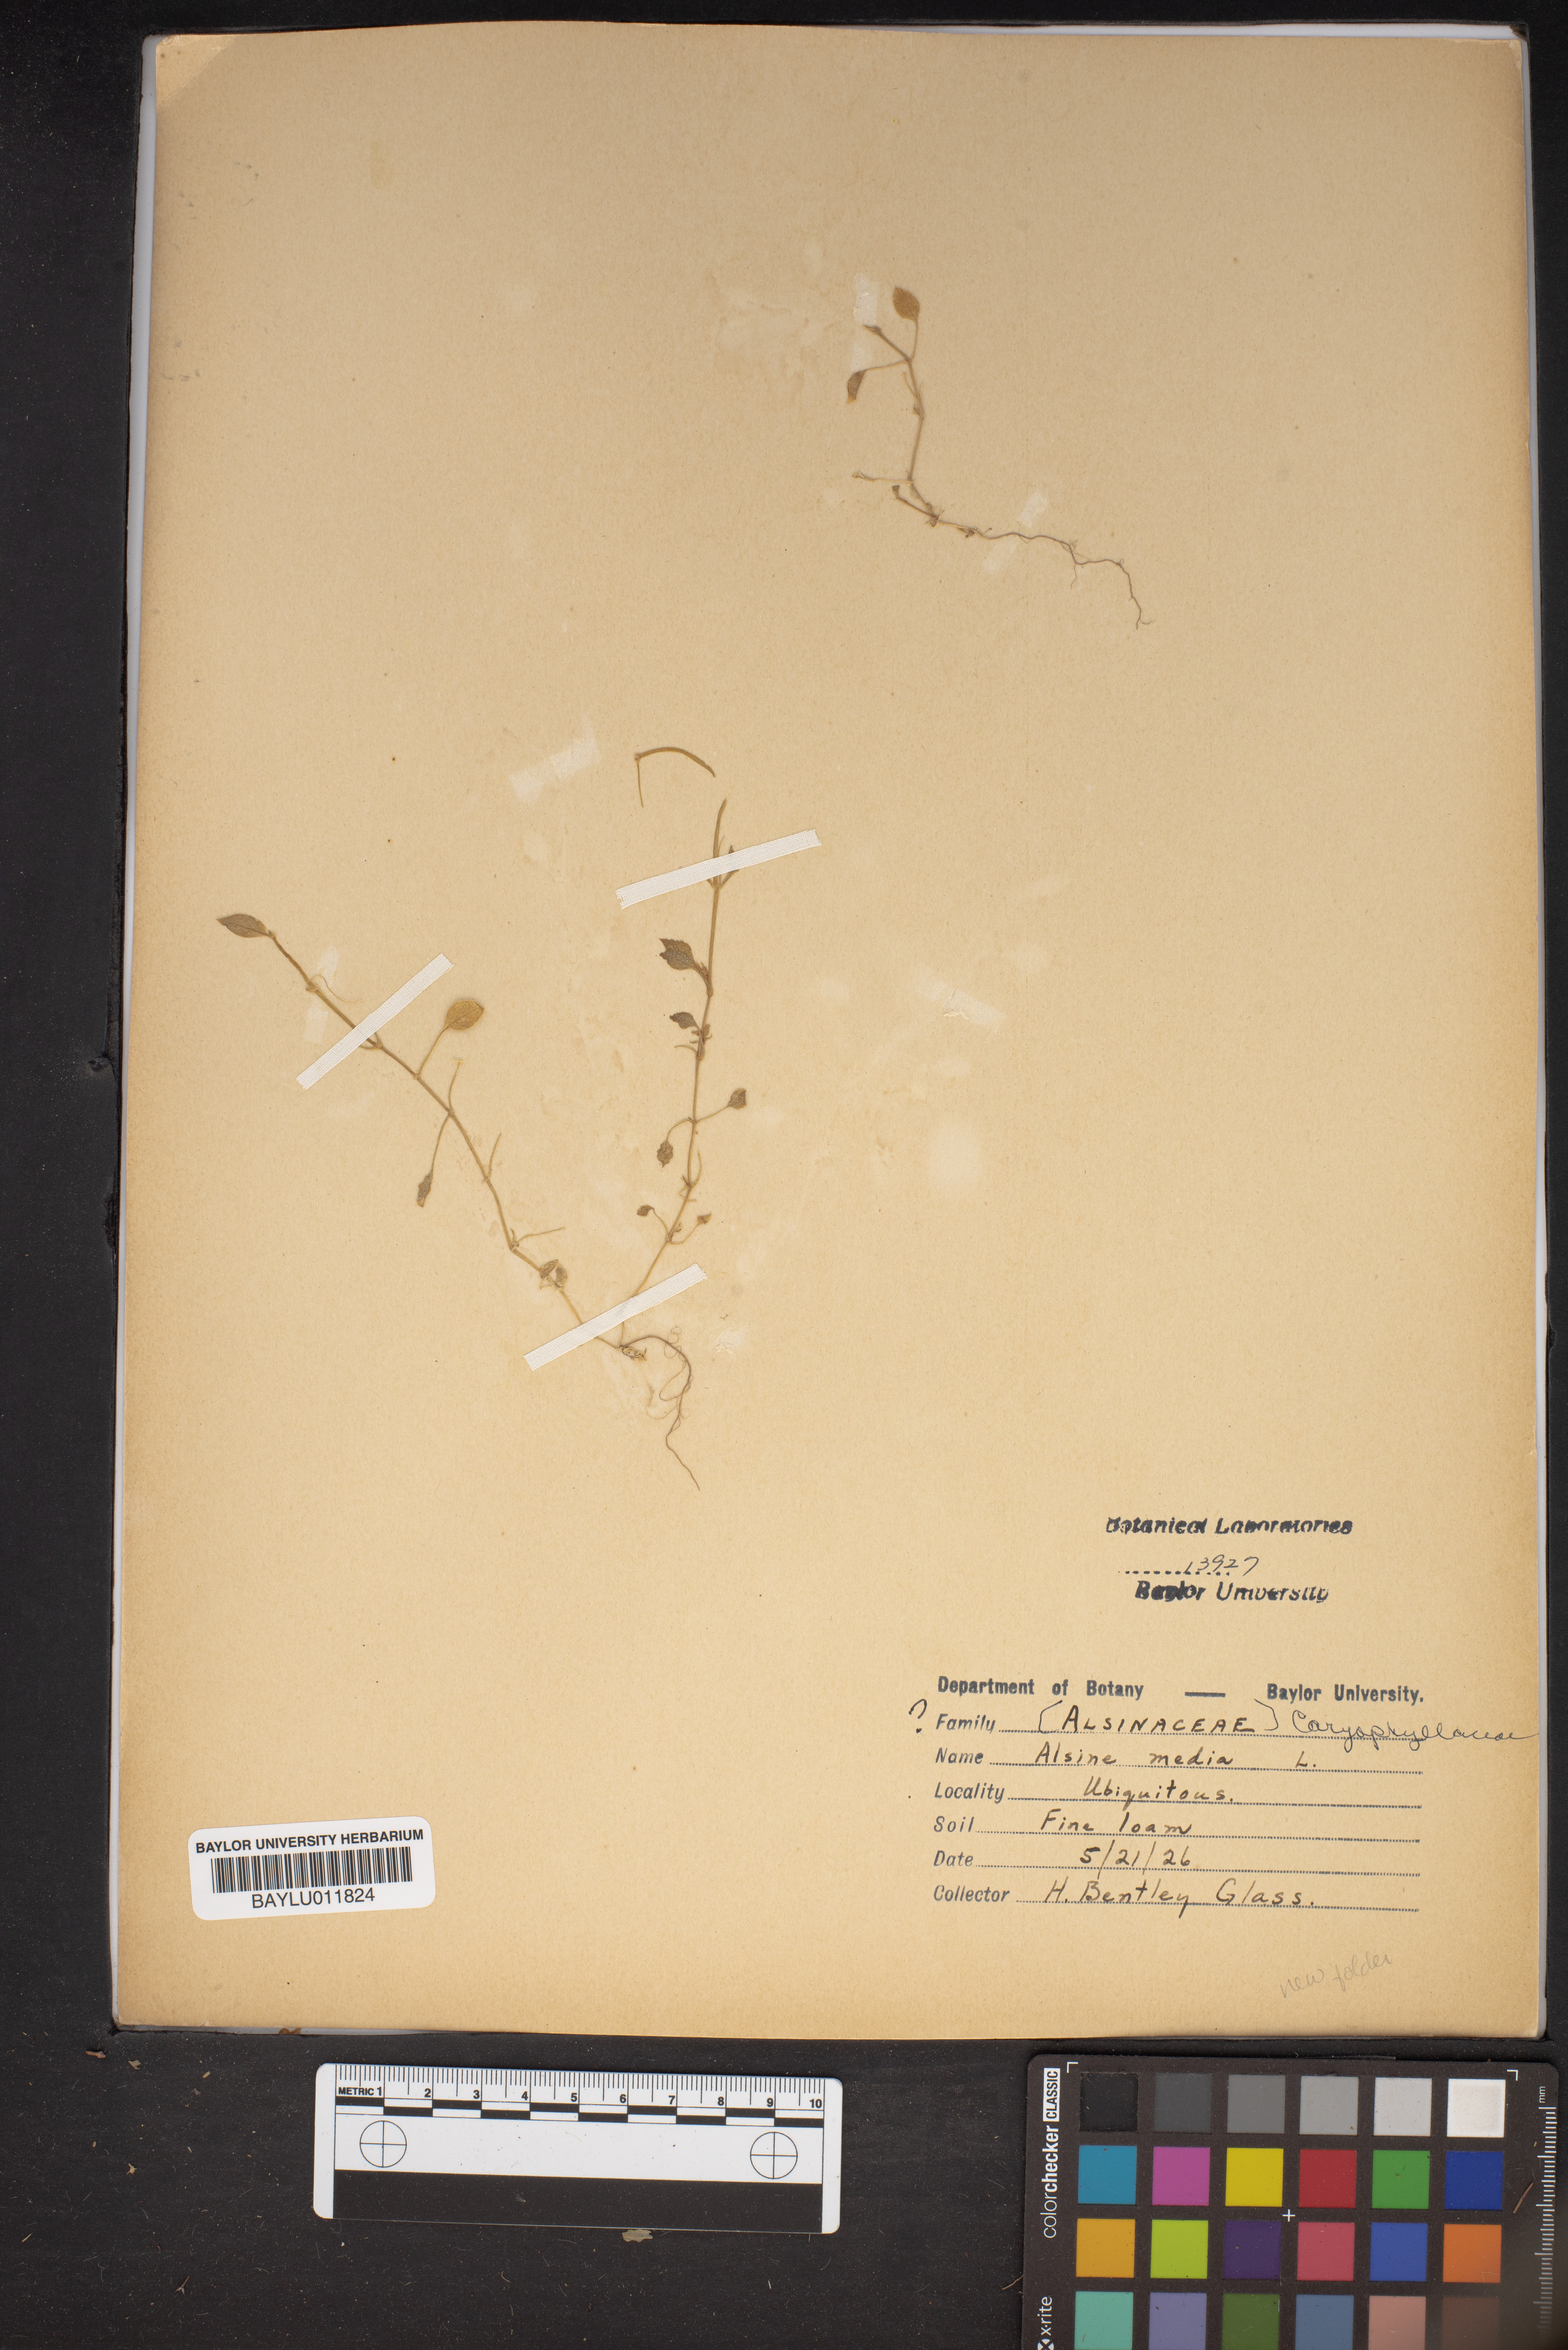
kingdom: Plantae
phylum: Tracheophyta
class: Magnoliopsida
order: Caryophyllales
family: Caryophyllaceae
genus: Stellaria
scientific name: Stellaria media
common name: Common chickweed
